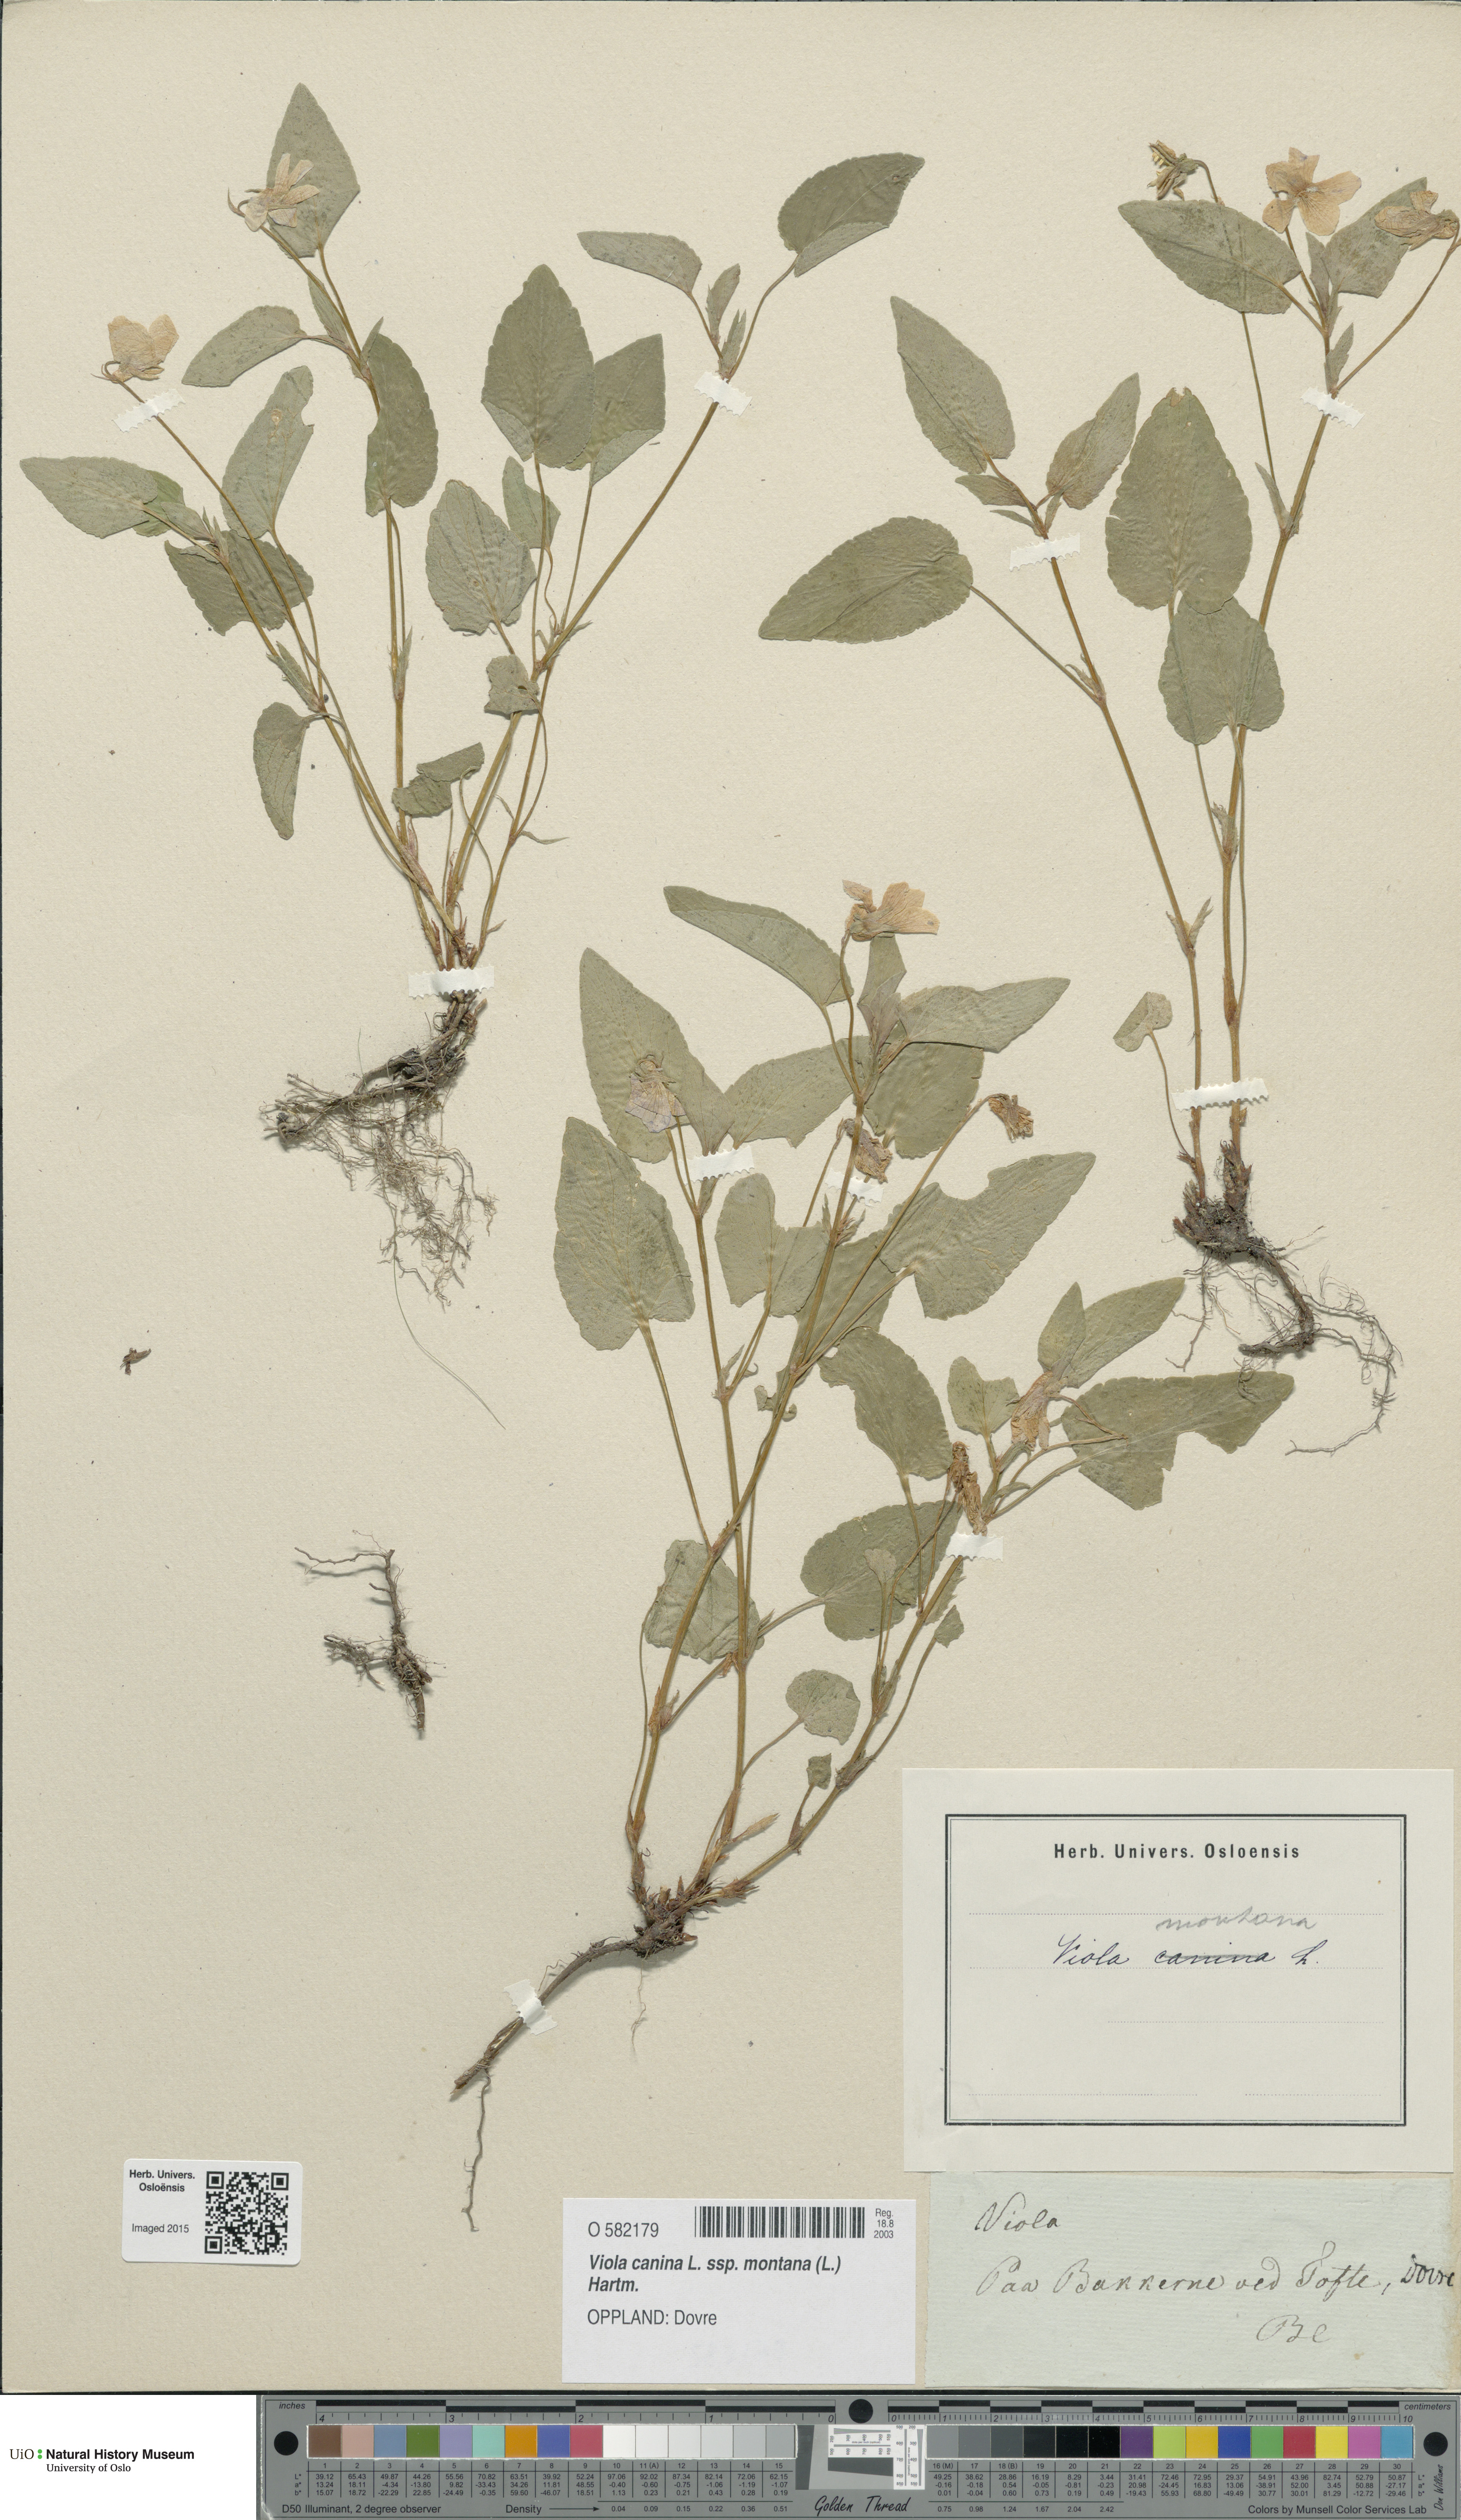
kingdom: Plantae
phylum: Tracheophyta
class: Magnoliopsida
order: Malpighiales
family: Violaceae
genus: Viola
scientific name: Viola ruppii
